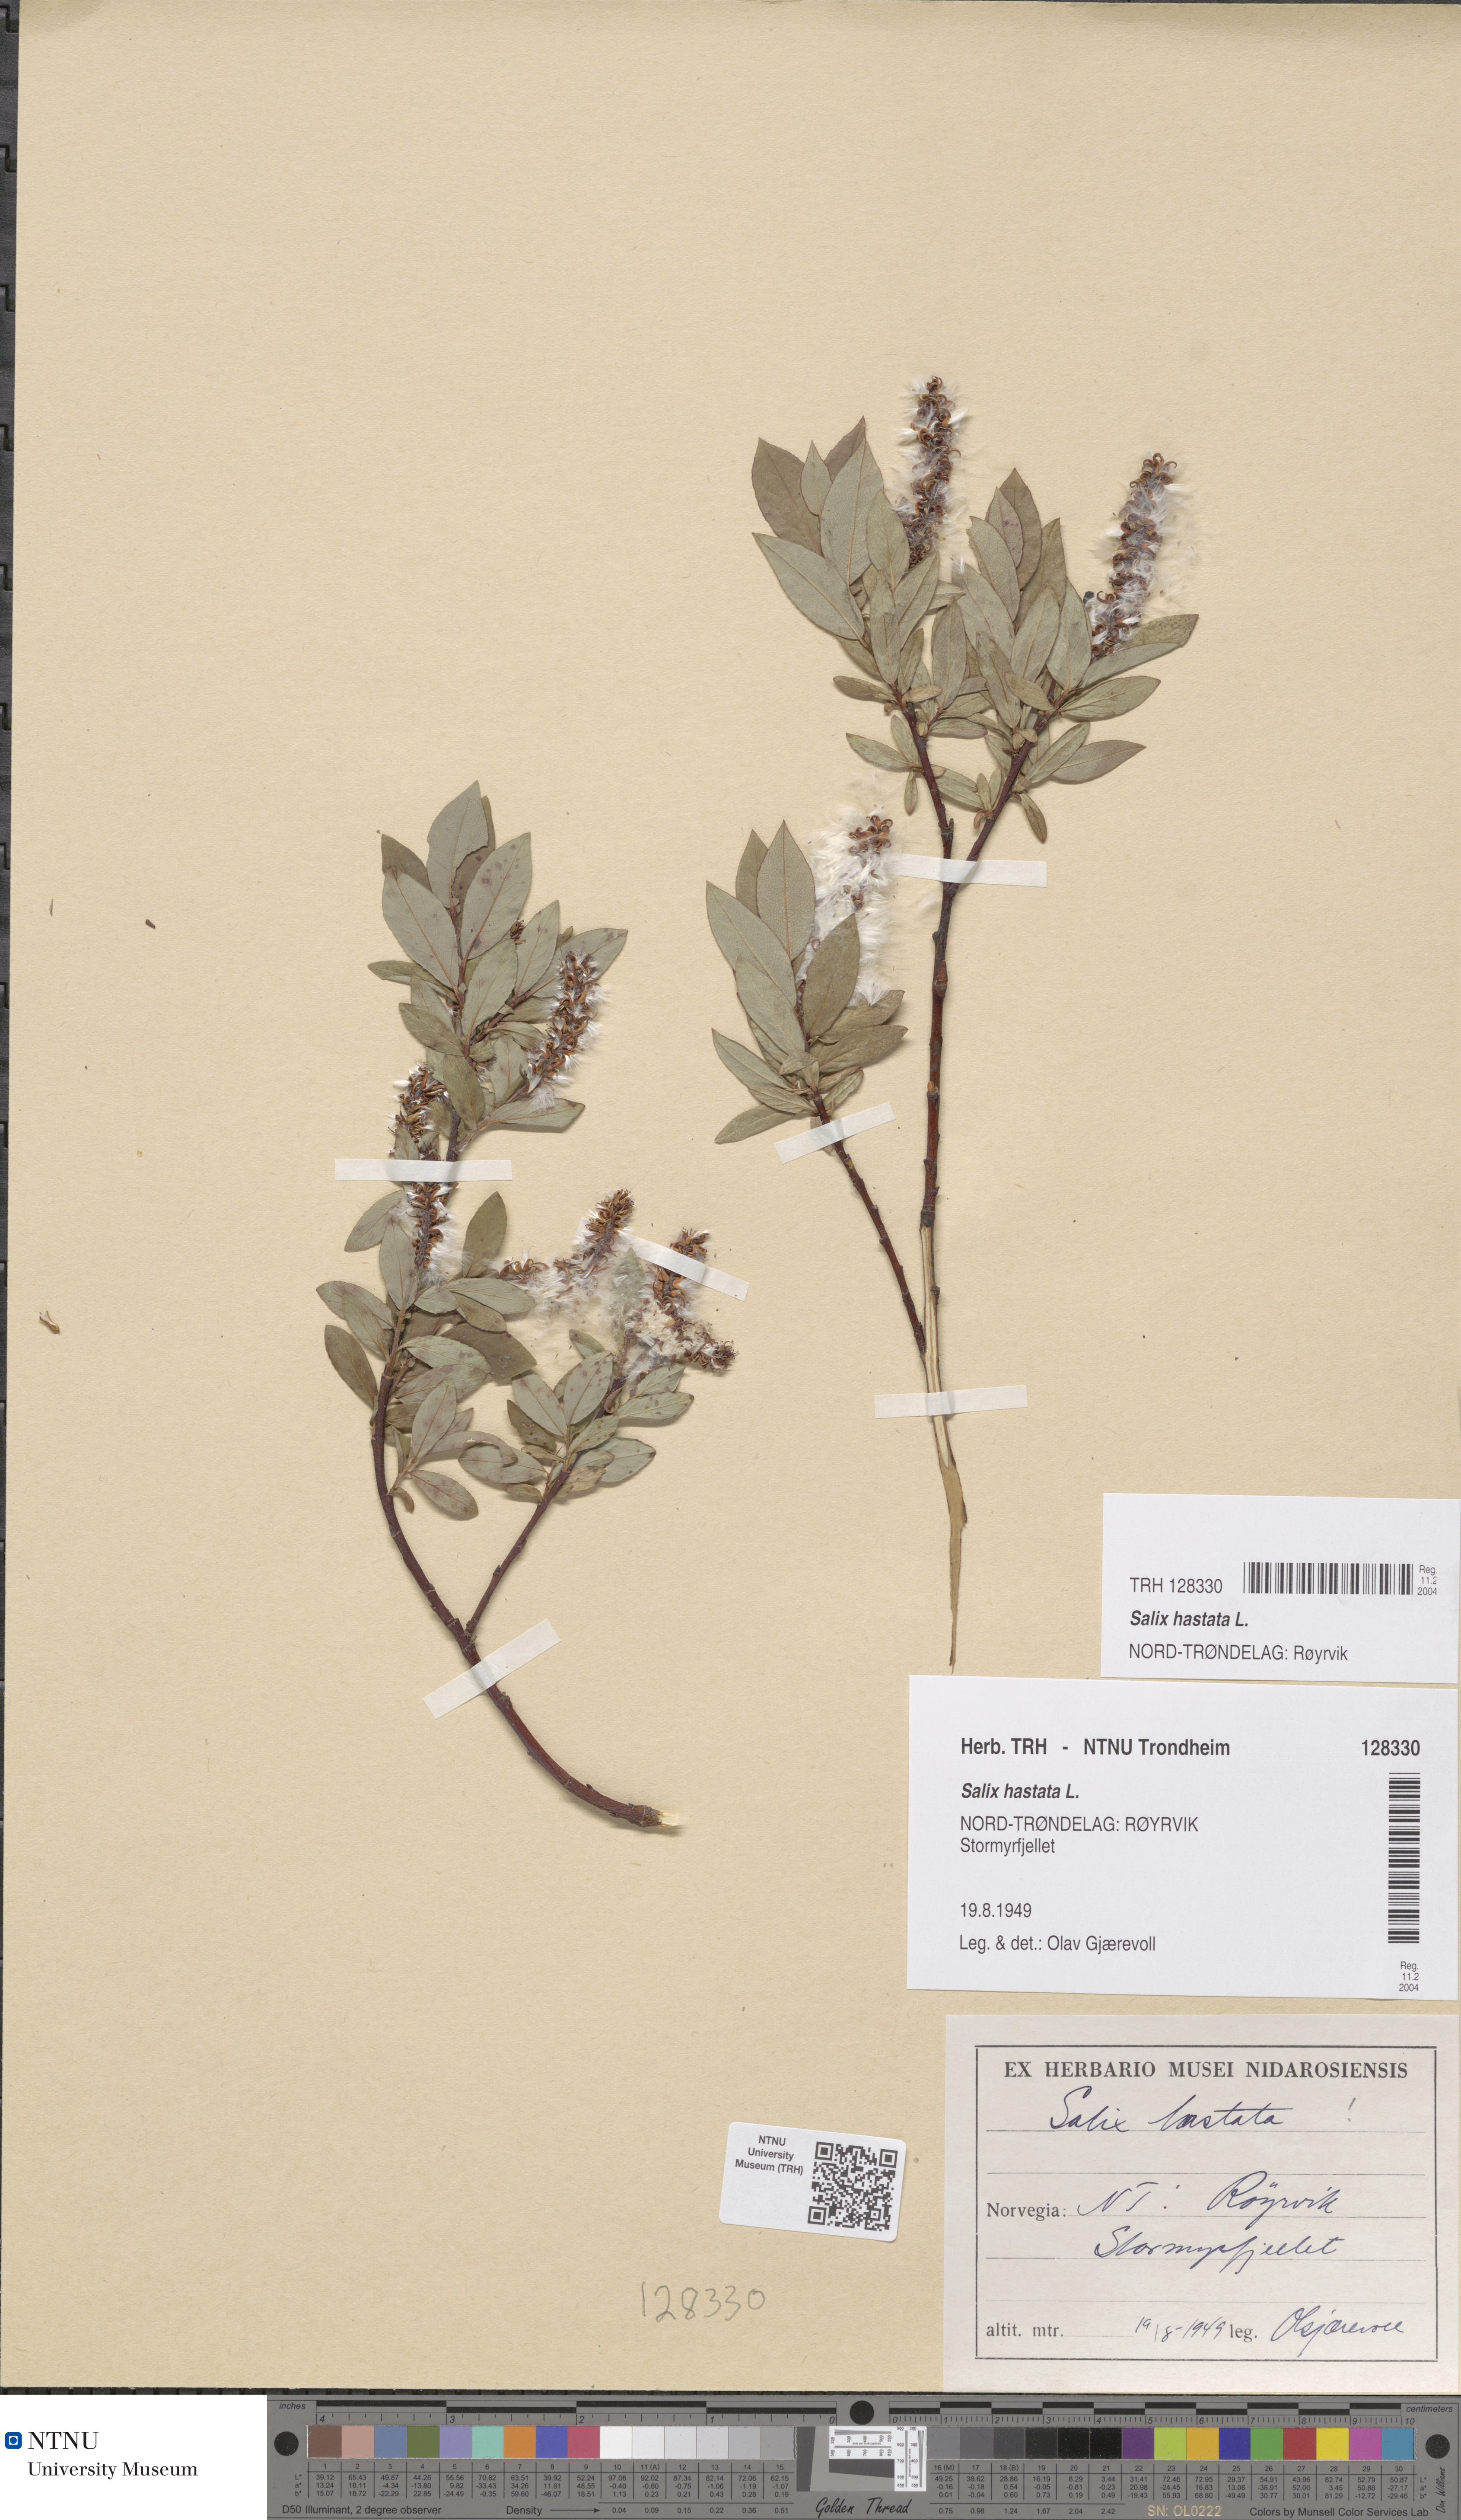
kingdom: Plantae
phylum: Tracheophyta
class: Magnoliopsida
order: Malpighiales
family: Salicaceae
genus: Salix
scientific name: Salix hastata
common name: Halberd willow
